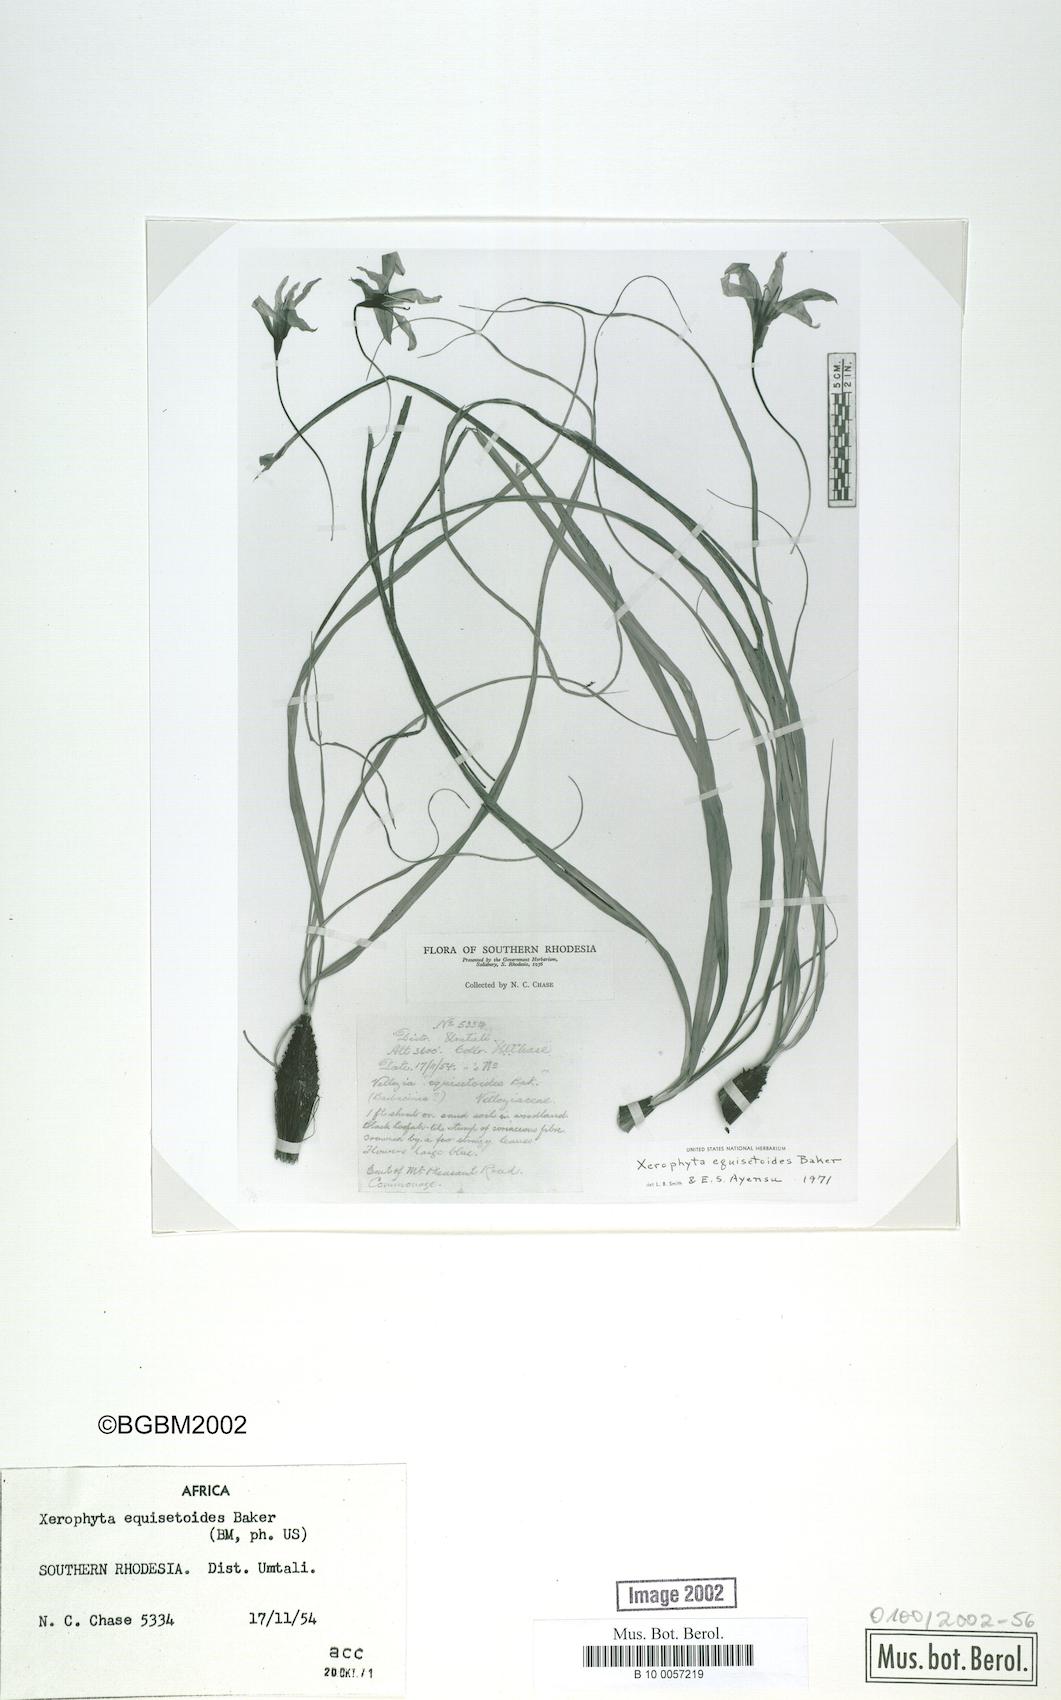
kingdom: Plantae
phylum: Tracheophyta
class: Liliopsida
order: Pandanales
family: Velloziaceae
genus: Xerophyta
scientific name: Xerophyta equisetoides
